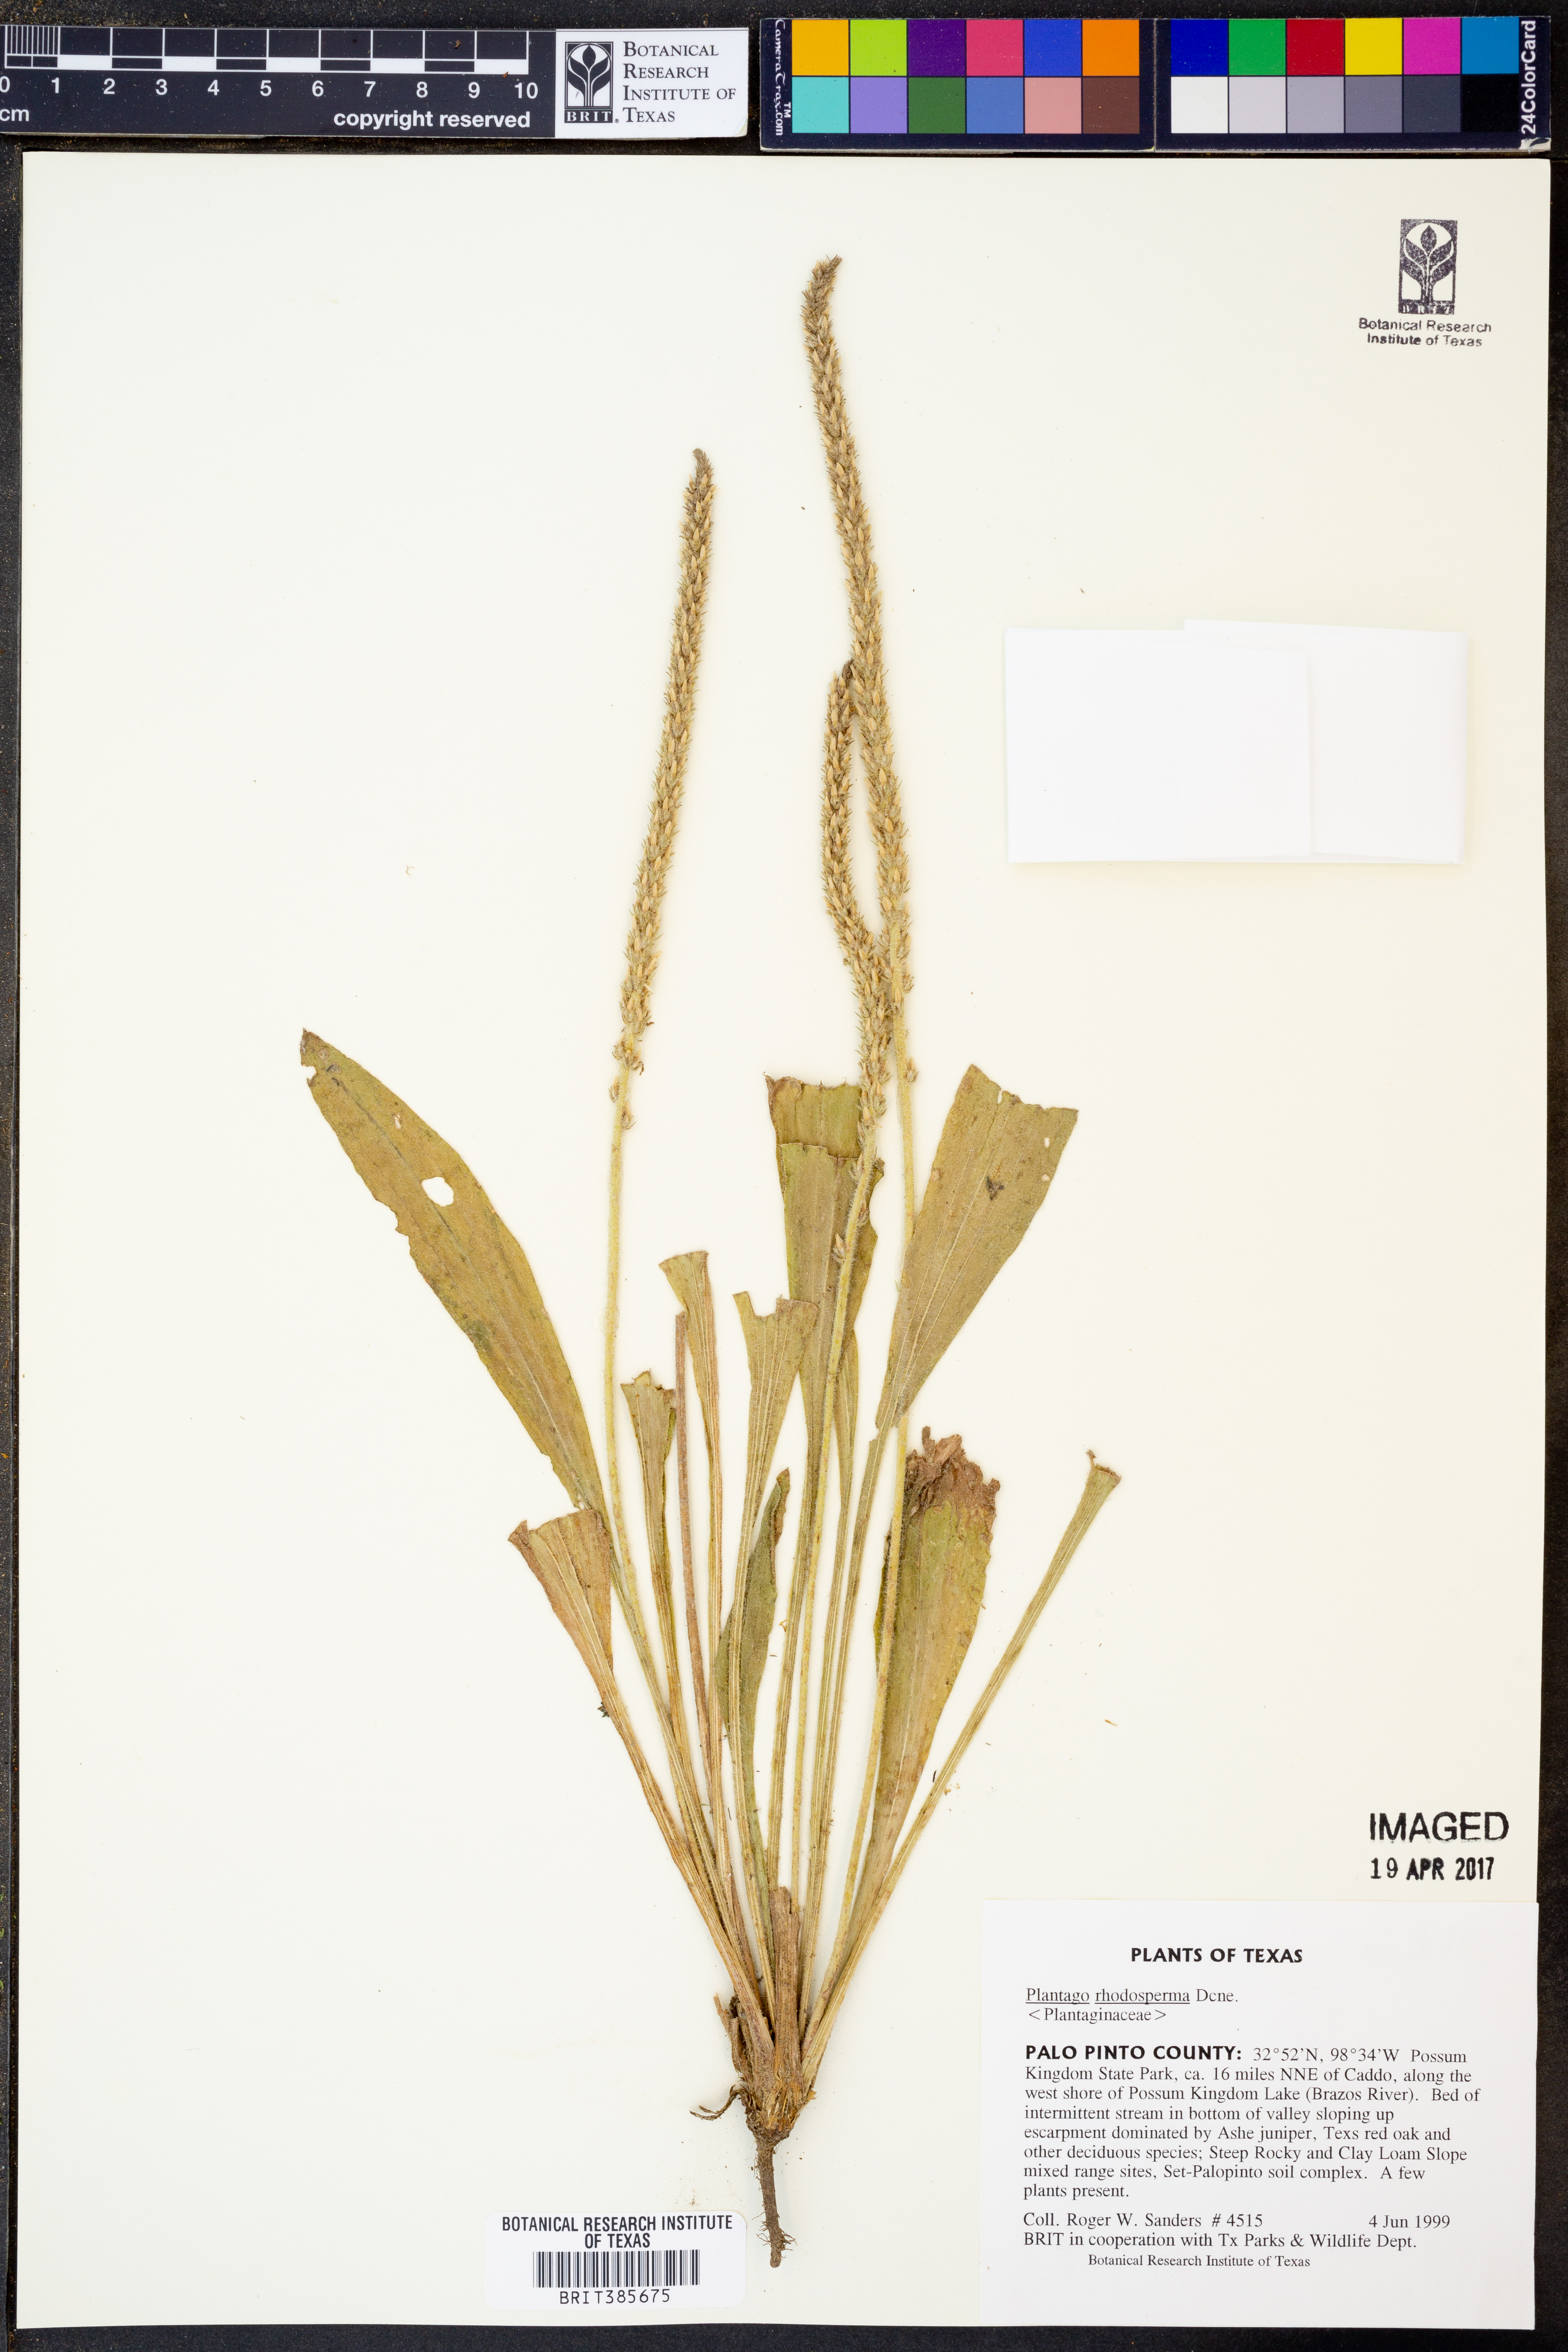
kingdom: Plantae
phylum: Tracheophyta
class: Magnoliopsida
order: Lamiales
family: Plantaginaceae
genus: Plantago
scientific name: Plantago rhodosperma
